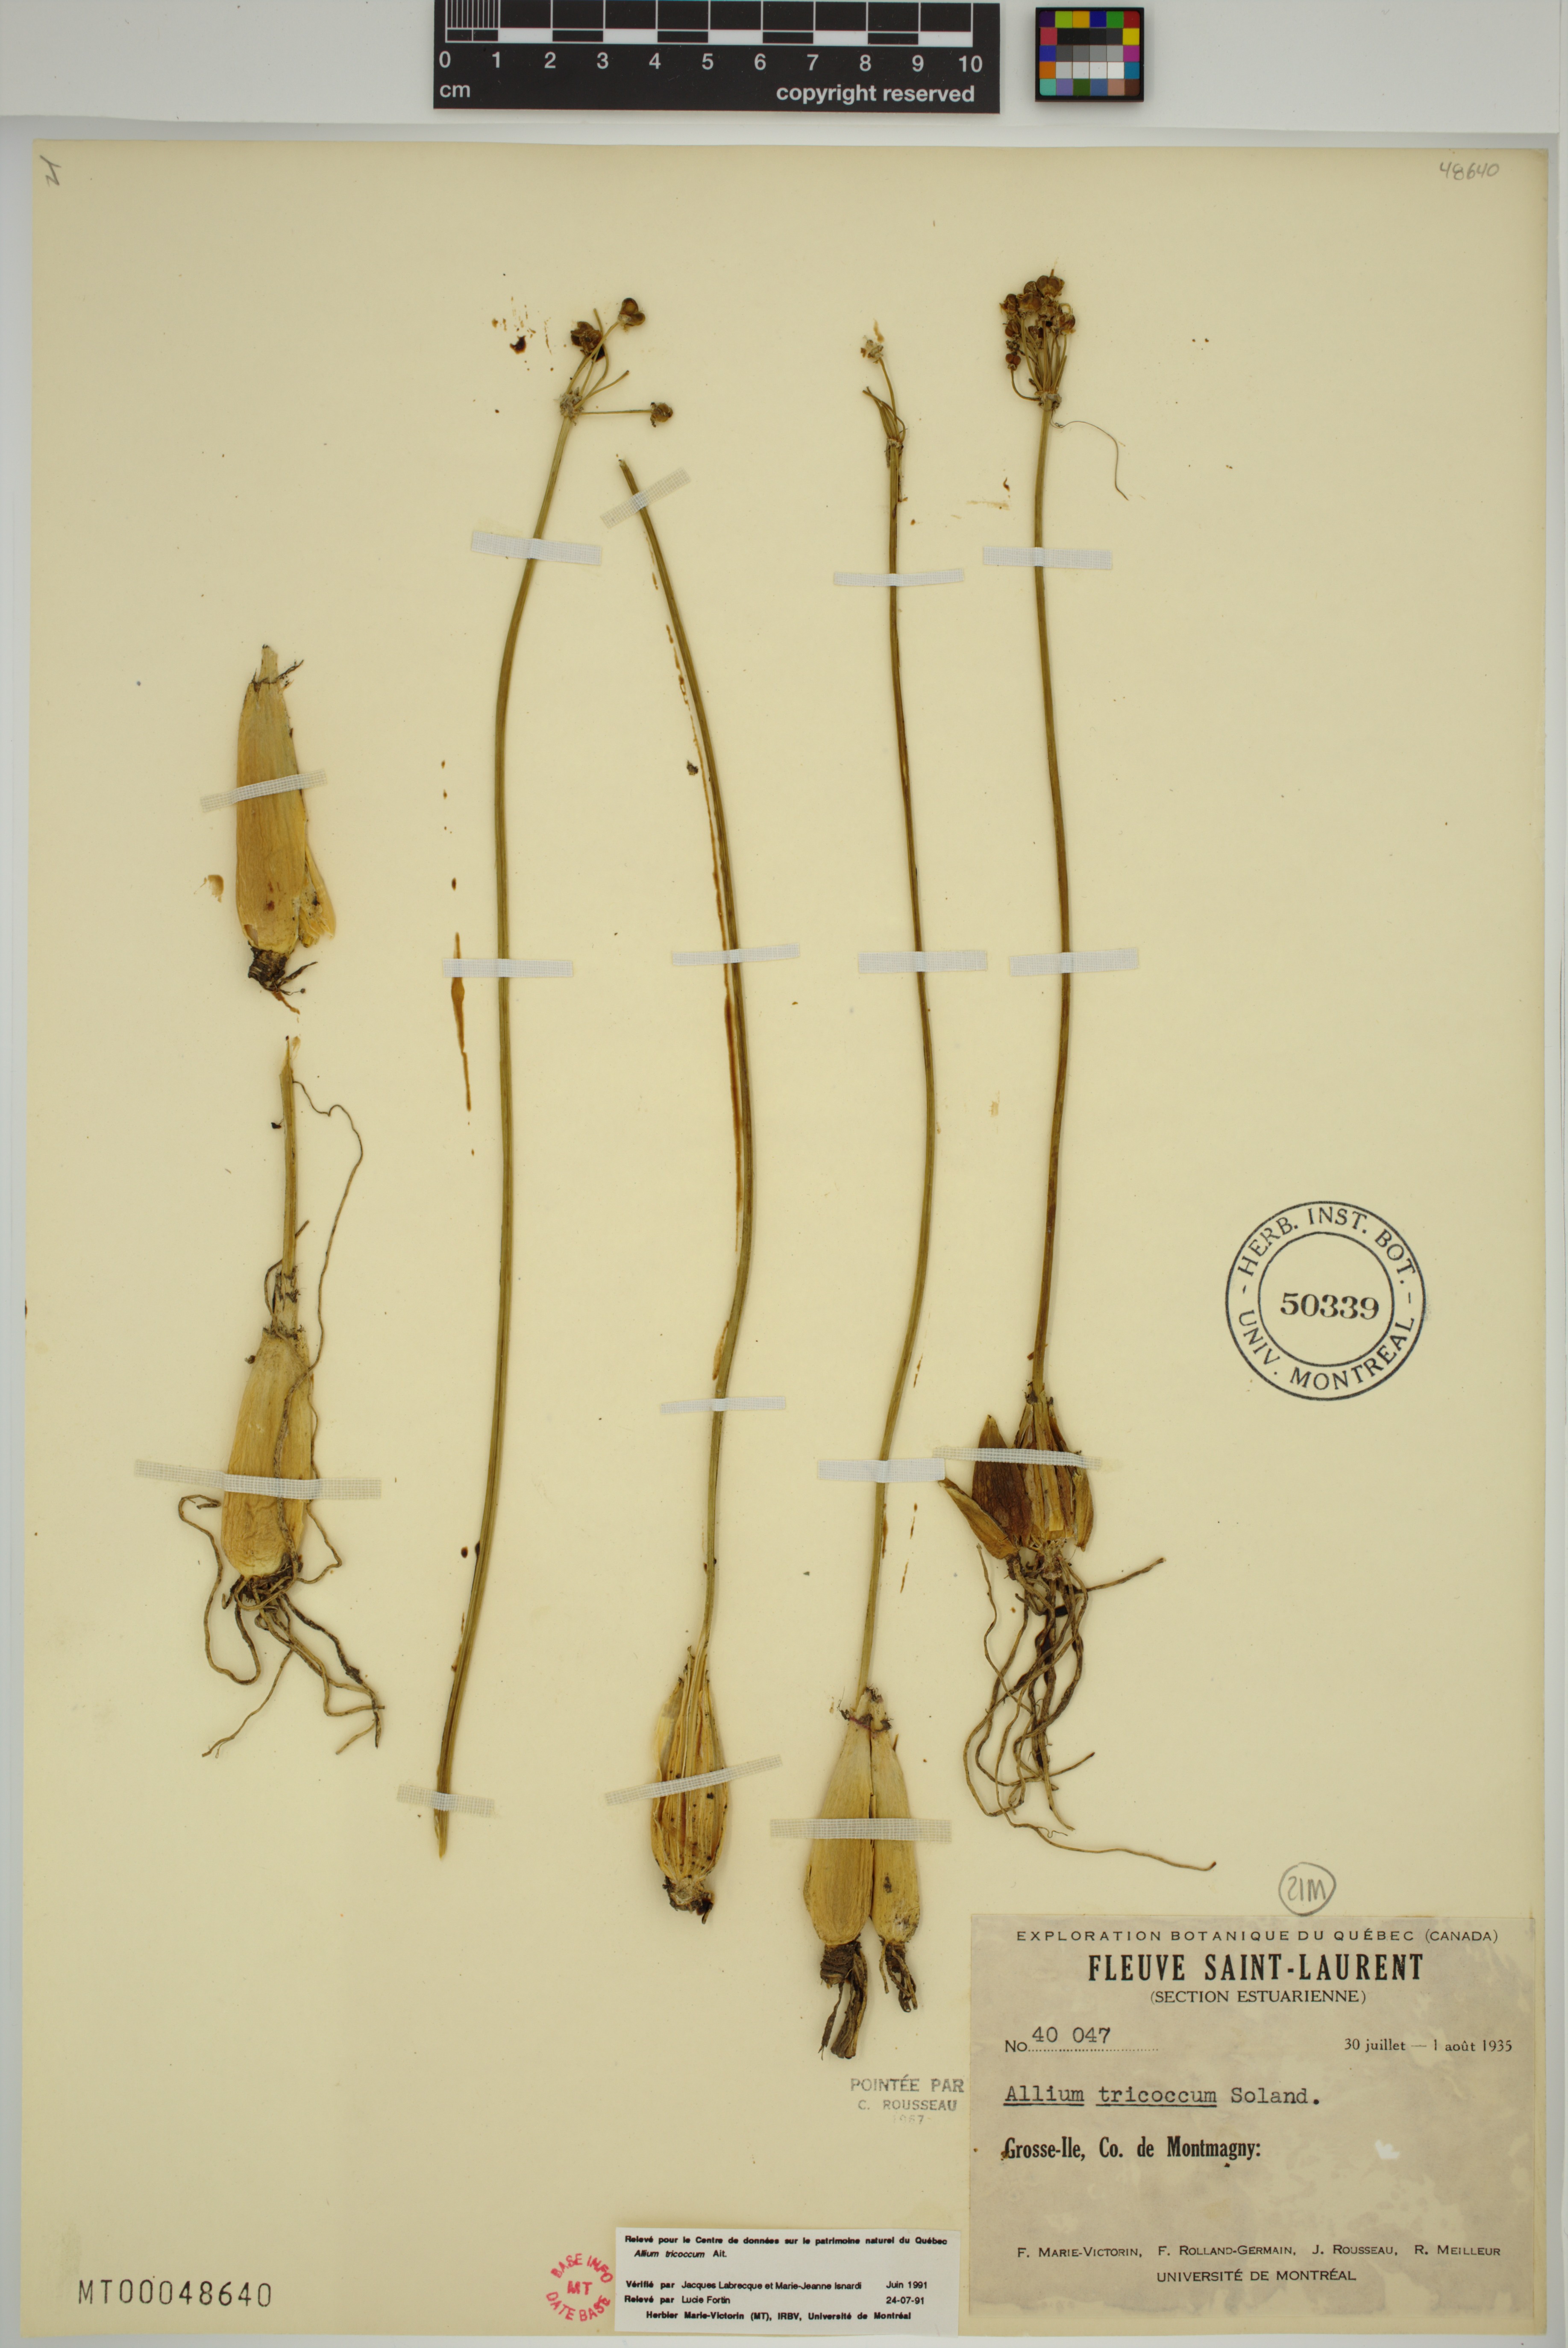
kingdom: Plantae
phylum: Tracheophyta
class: Liliopsida
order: Asparagales
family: Amaryllidaceae
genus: Allium
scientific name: Allium tricoccum
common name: Ramp
